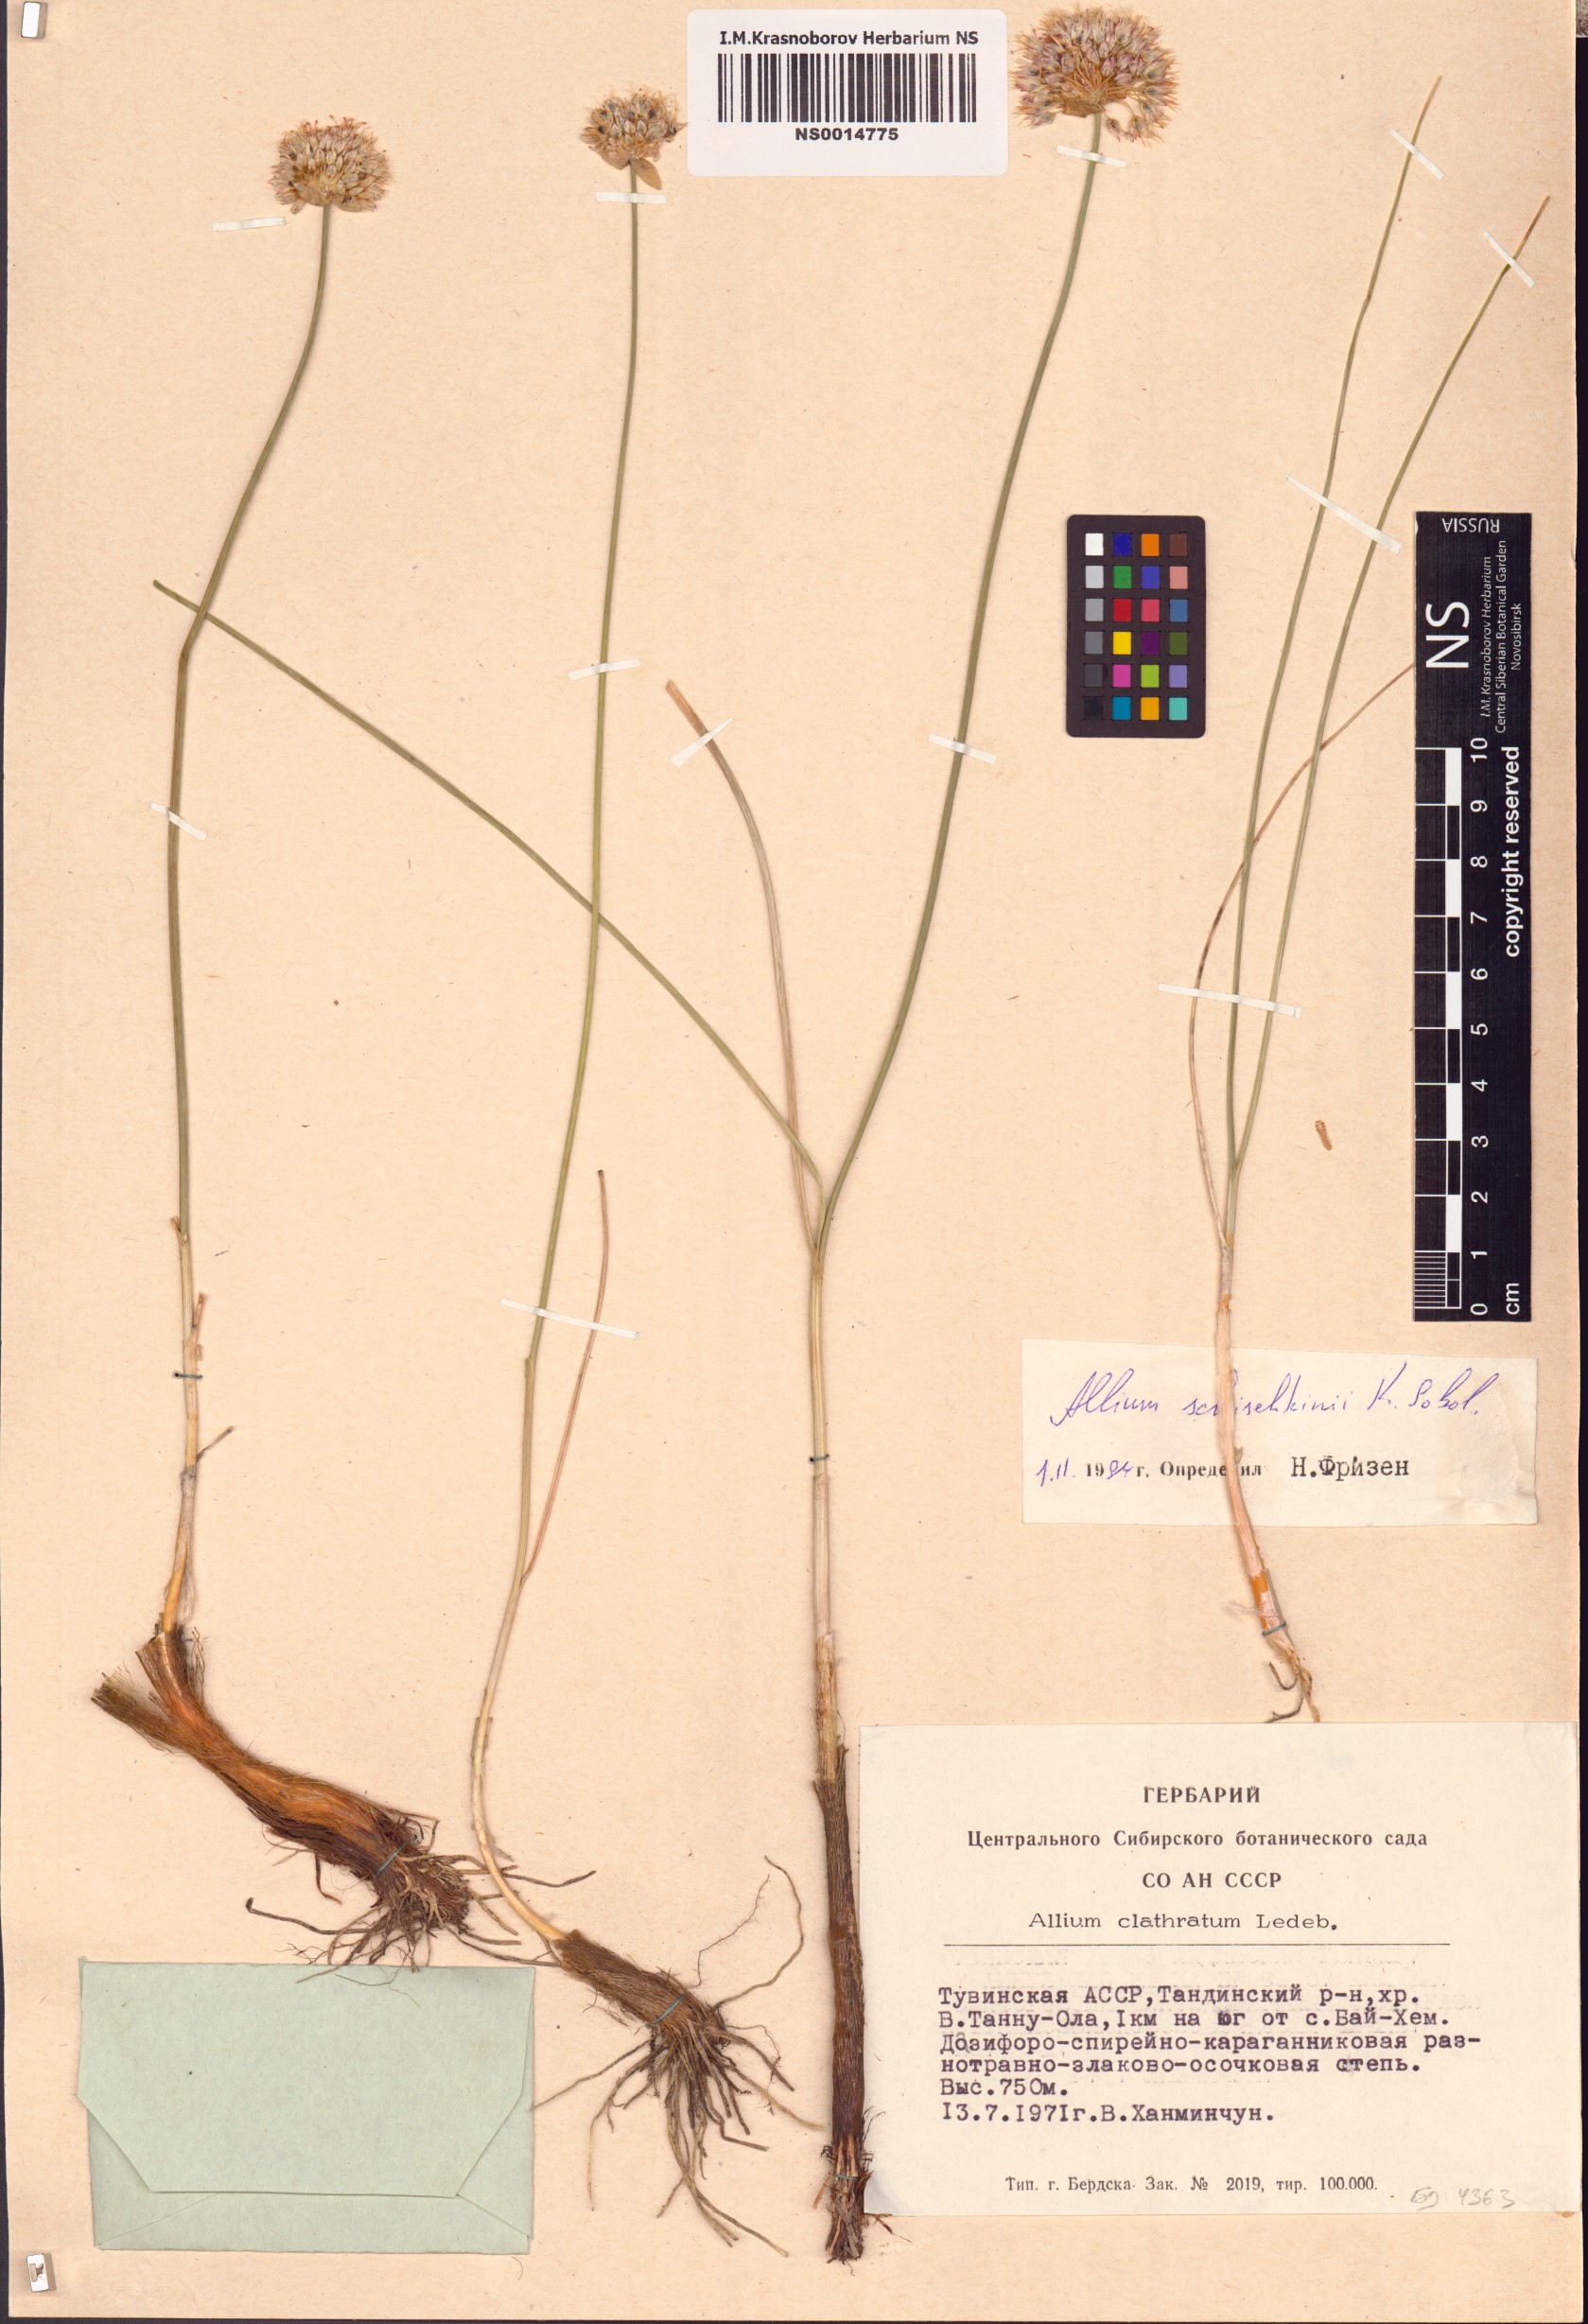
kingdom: Plantae
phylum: Tracheophyta
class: Liliopsida
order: Asparagales
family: Amaryllidaceae
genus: Allium
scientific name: Allium schischkinii
